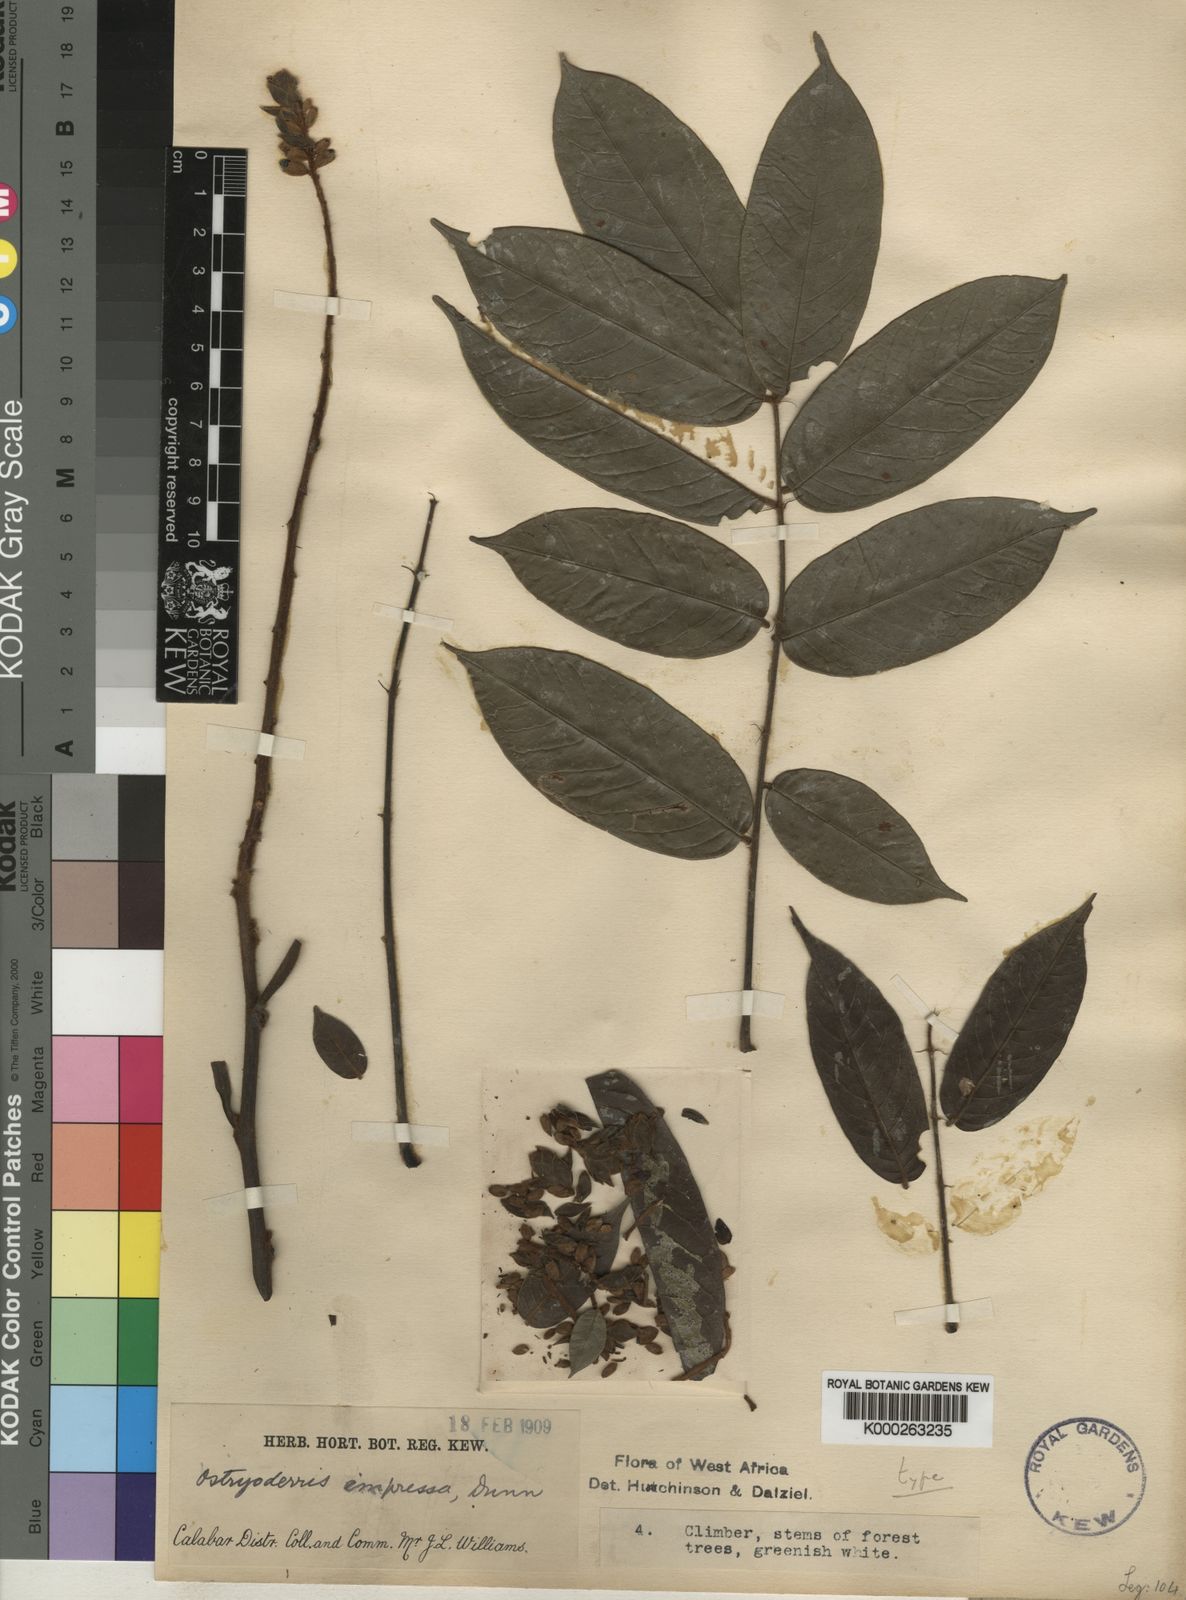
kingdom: Plantae
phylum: Tracheophyta
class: Magnoliopsida
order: Fabales
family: Fabaceae
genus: Aganope
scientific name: Aganope impressa
